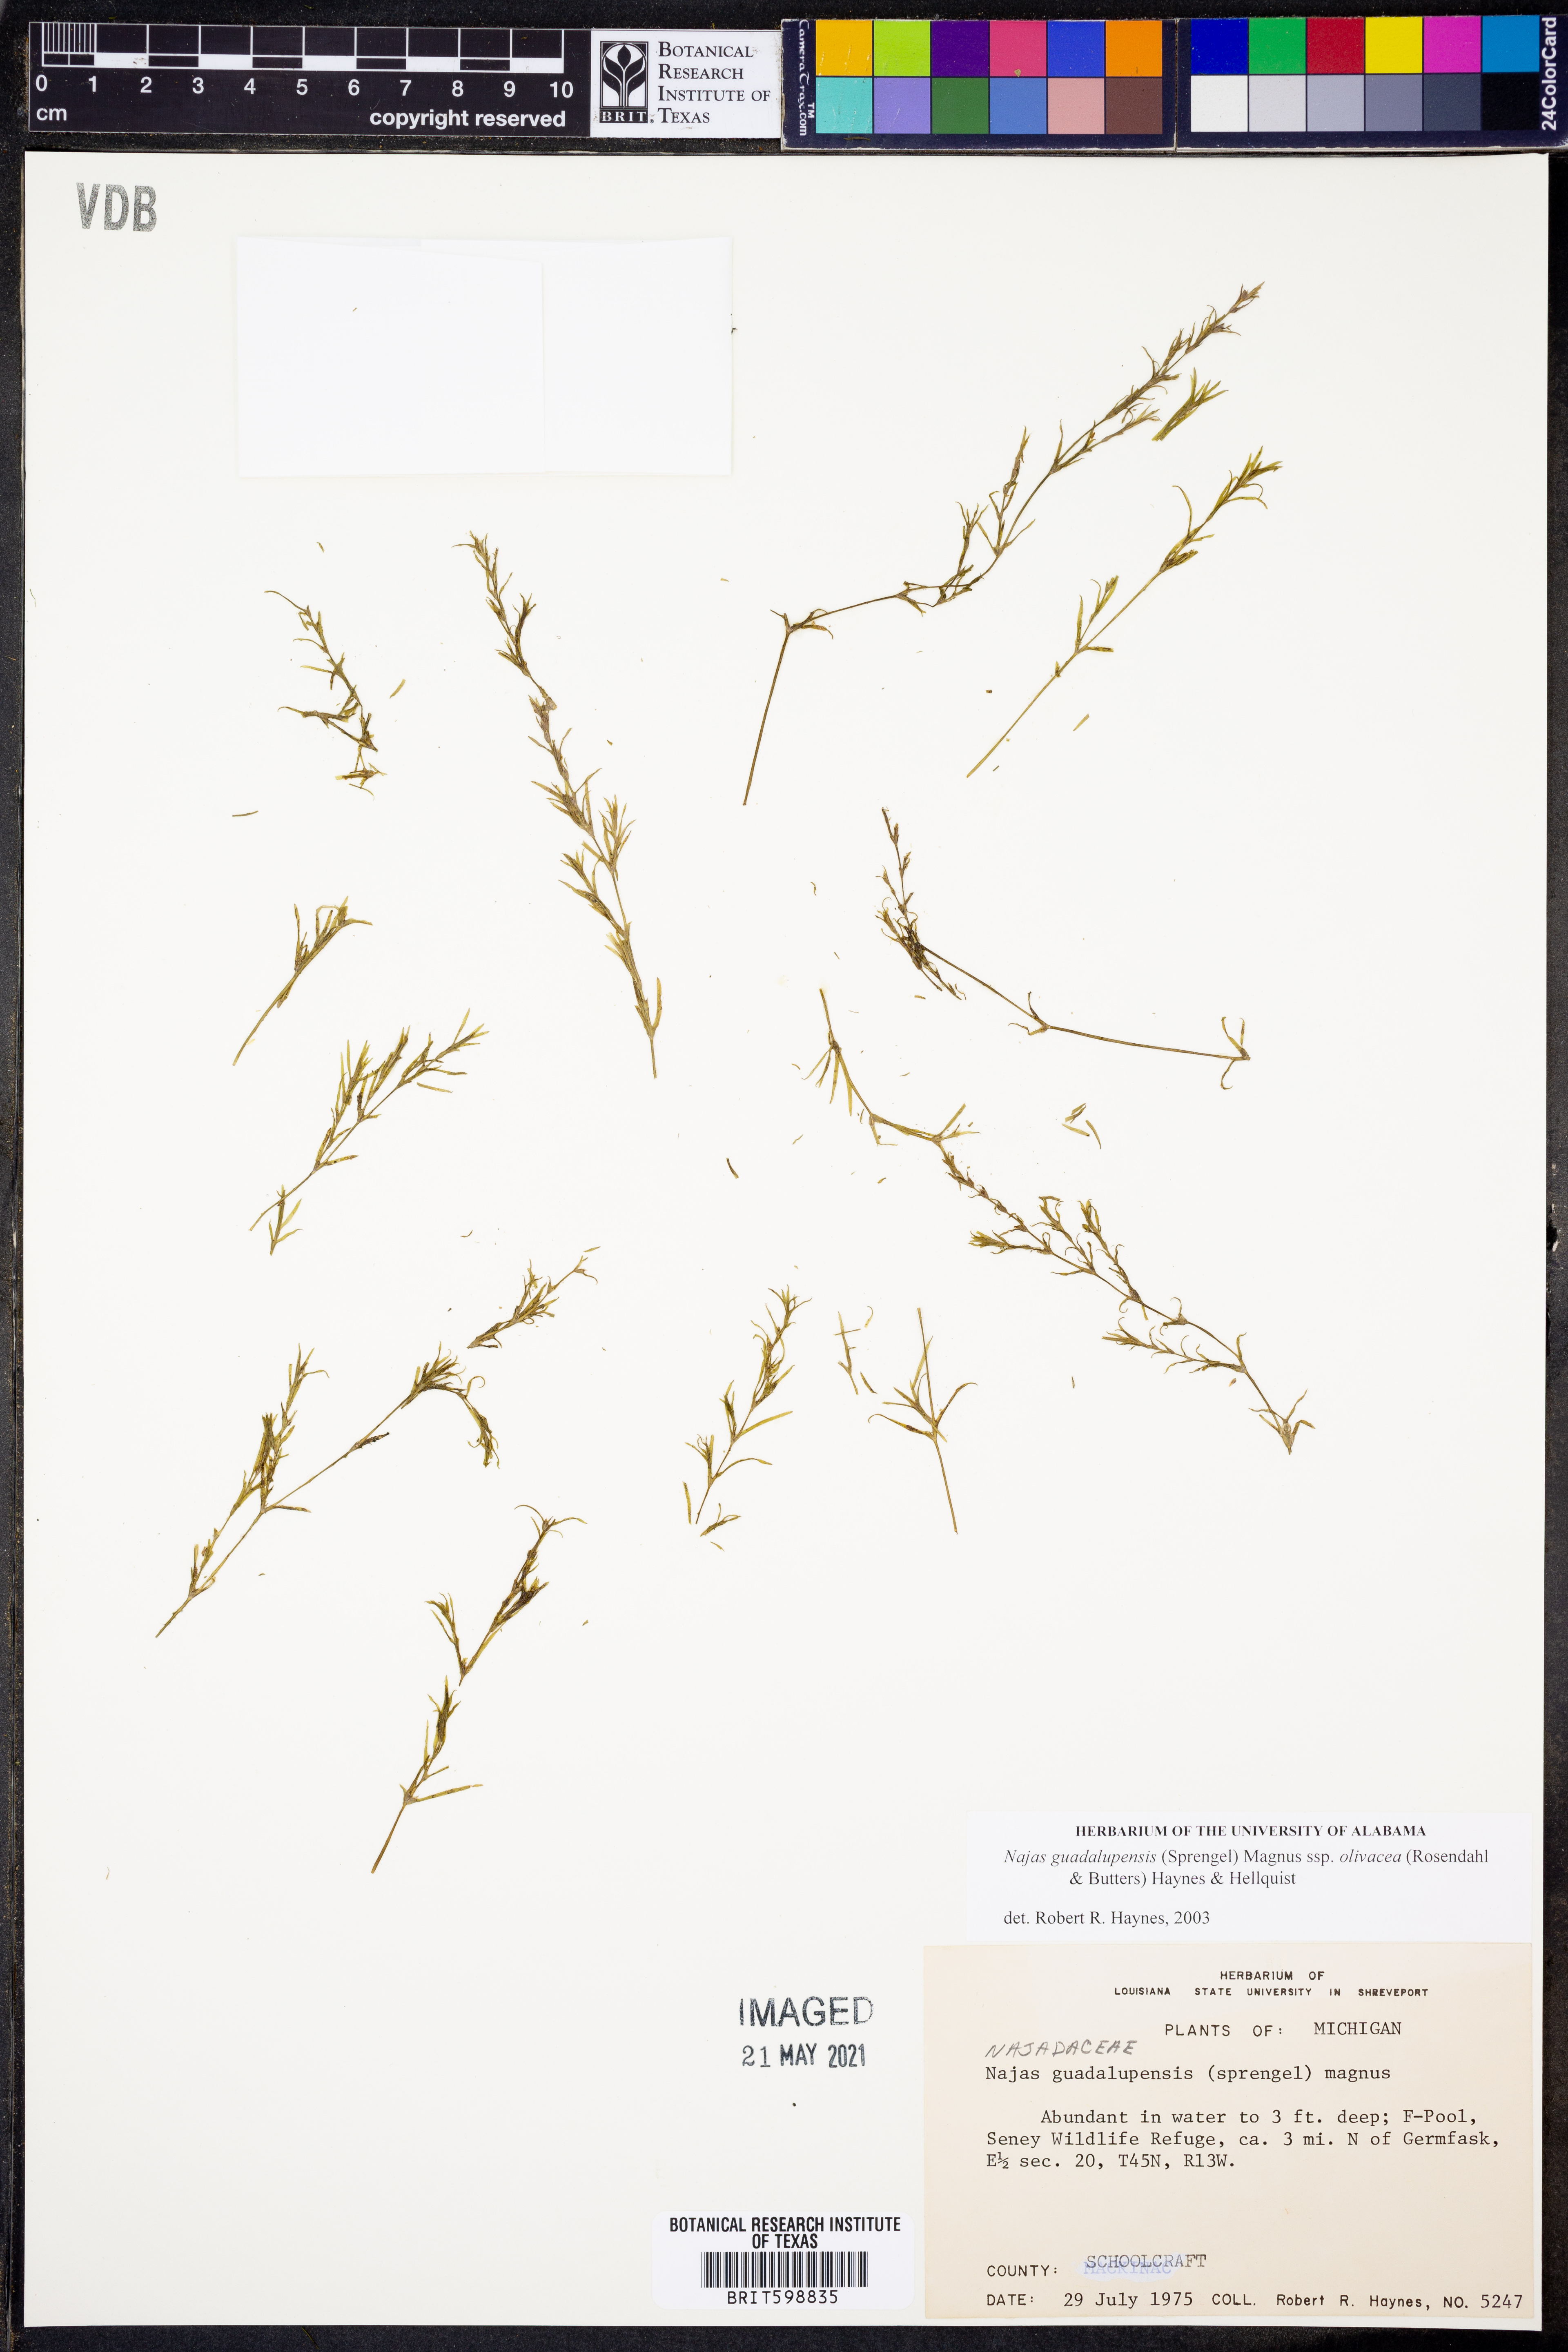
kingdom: Plantae
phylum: Tracheophyta
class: Liliopsida
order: Alismatales
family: Hydrocharitaceae
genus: Najas
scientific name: Najas guadalupensis
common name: Southern naiad
